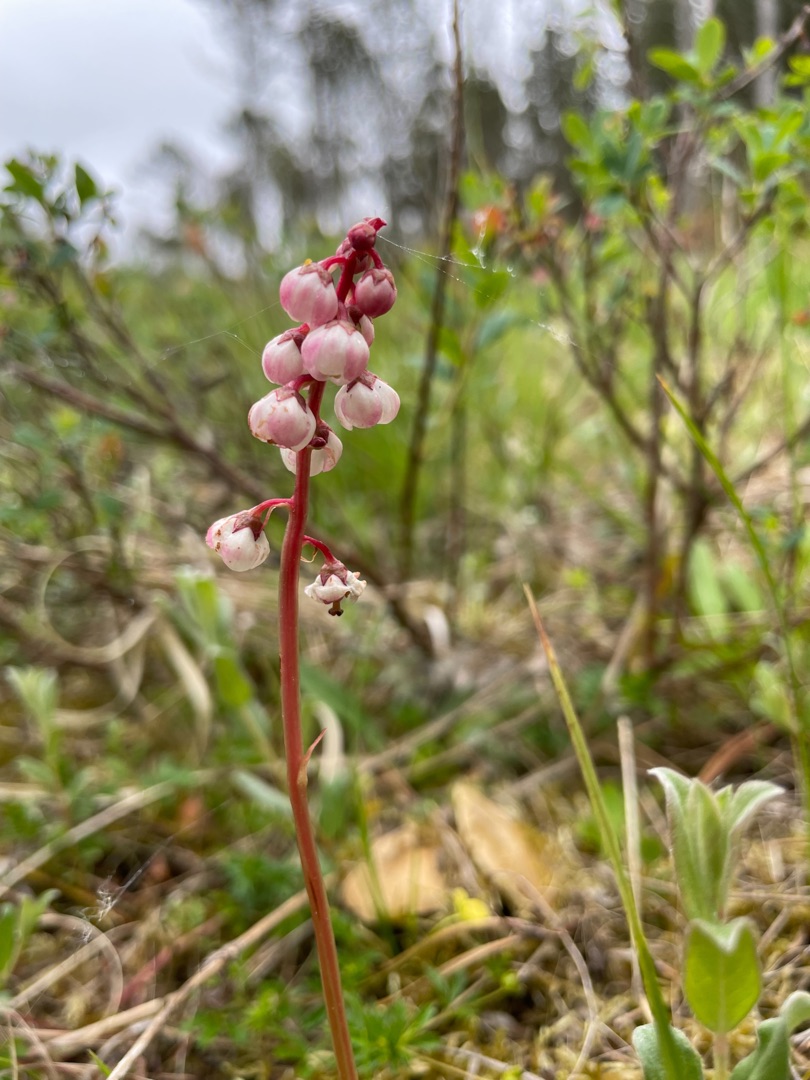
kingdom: Plantae
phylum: Tracheophyta
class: Magnoliopsida
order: Ericales
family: Ericaceae
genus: Pyrola
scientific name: Pyrola minor
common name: Liden vintergrøn
